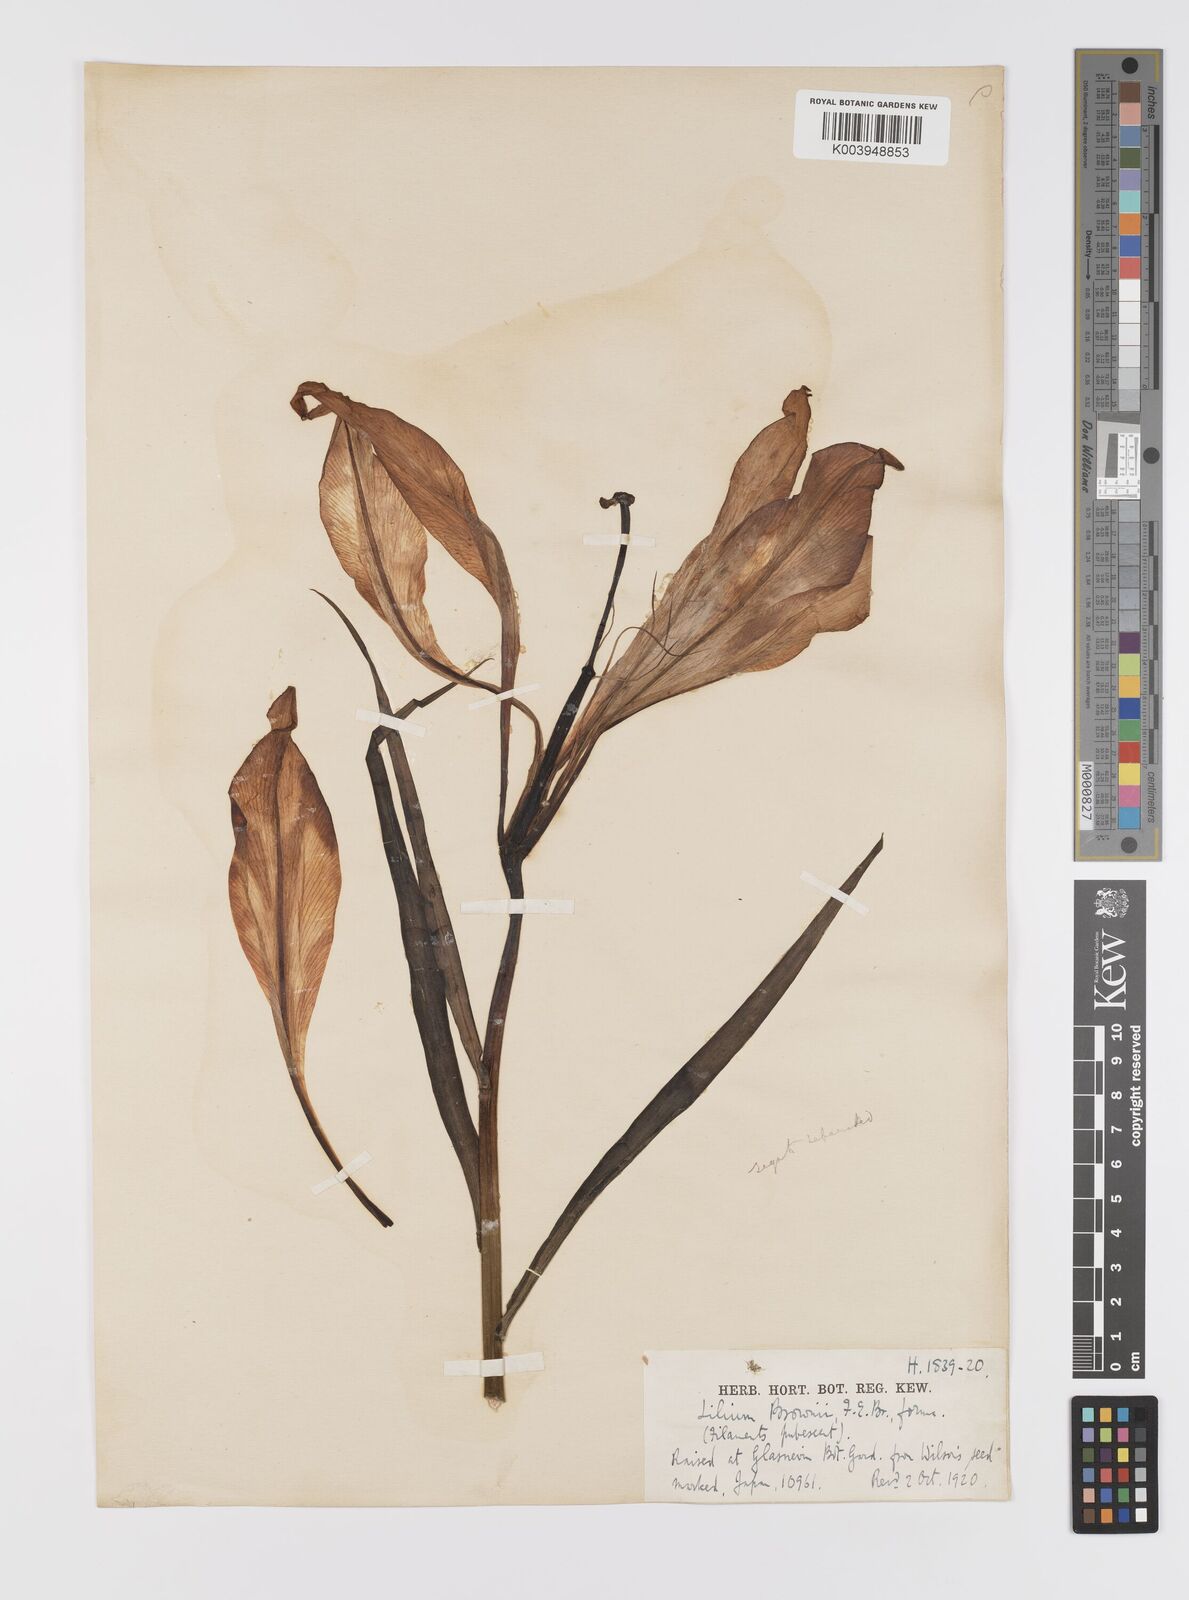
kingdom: Plantae
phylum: Tracheophyta
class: Liliopsida
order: Liliales
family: Liliaceae
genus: Lilium
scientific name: Lilium formosanum
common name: Formosa lily
